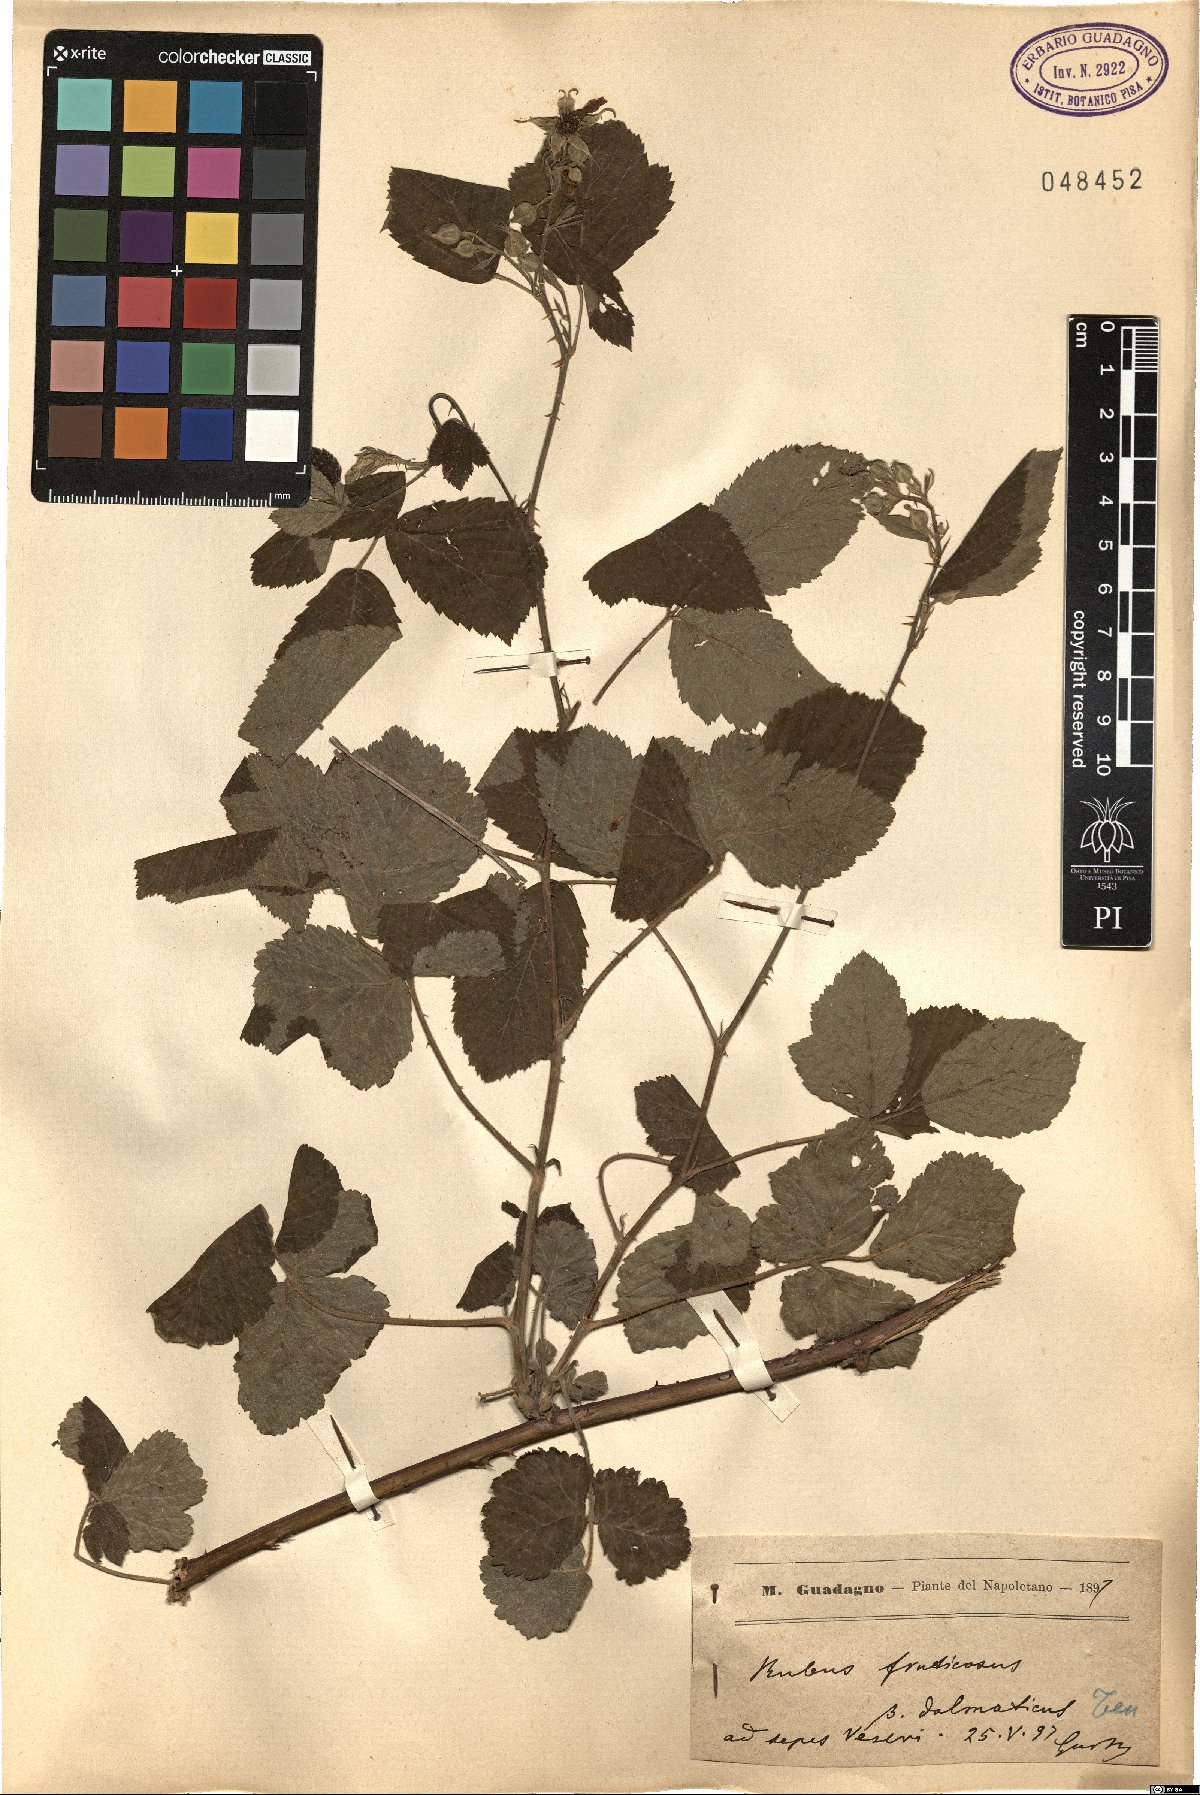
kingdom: Plantae
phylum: Tracheophyta
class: Magnoliopsida
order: Rosales
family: Rosaceae
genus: Rubus
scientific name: Rubus fruticosus
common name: Blackberry, bramble
